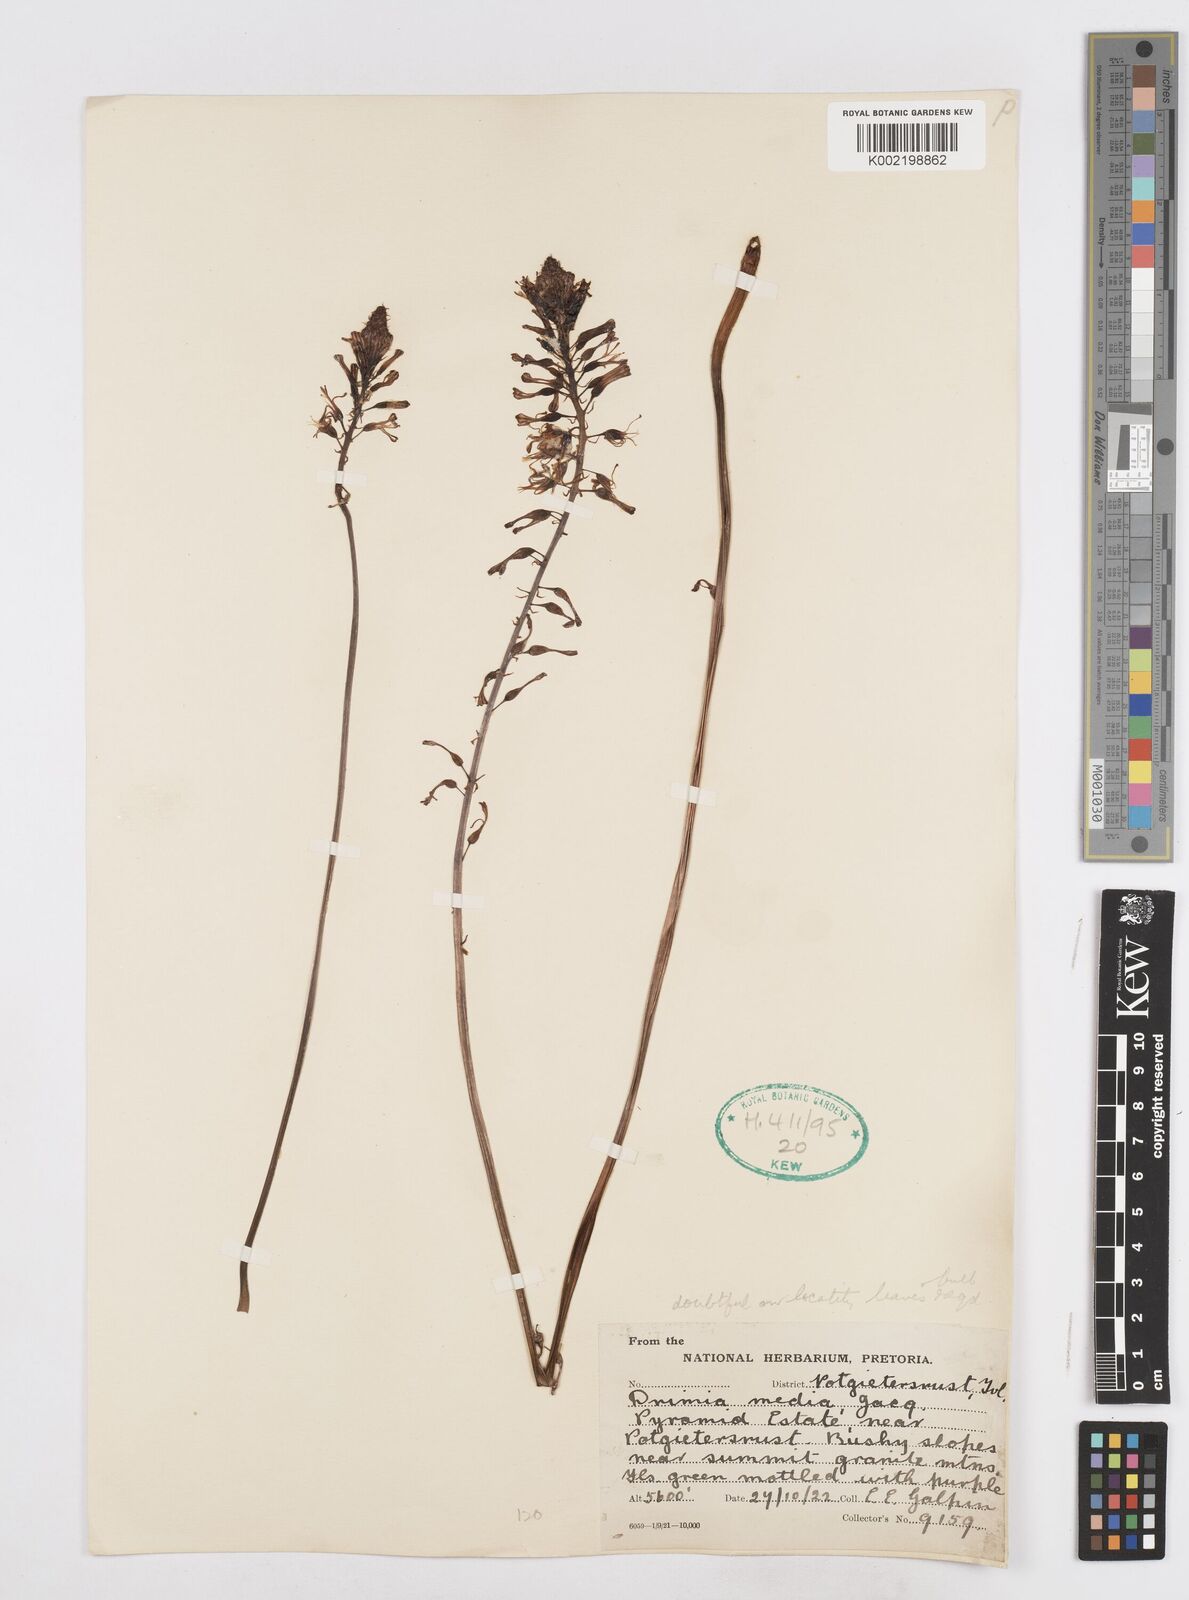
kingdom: Plantae
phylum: Tracheophyta
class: Liliopsida
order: Asparagales
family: Asparagaceae
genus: Drimia
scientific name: Drimia media
